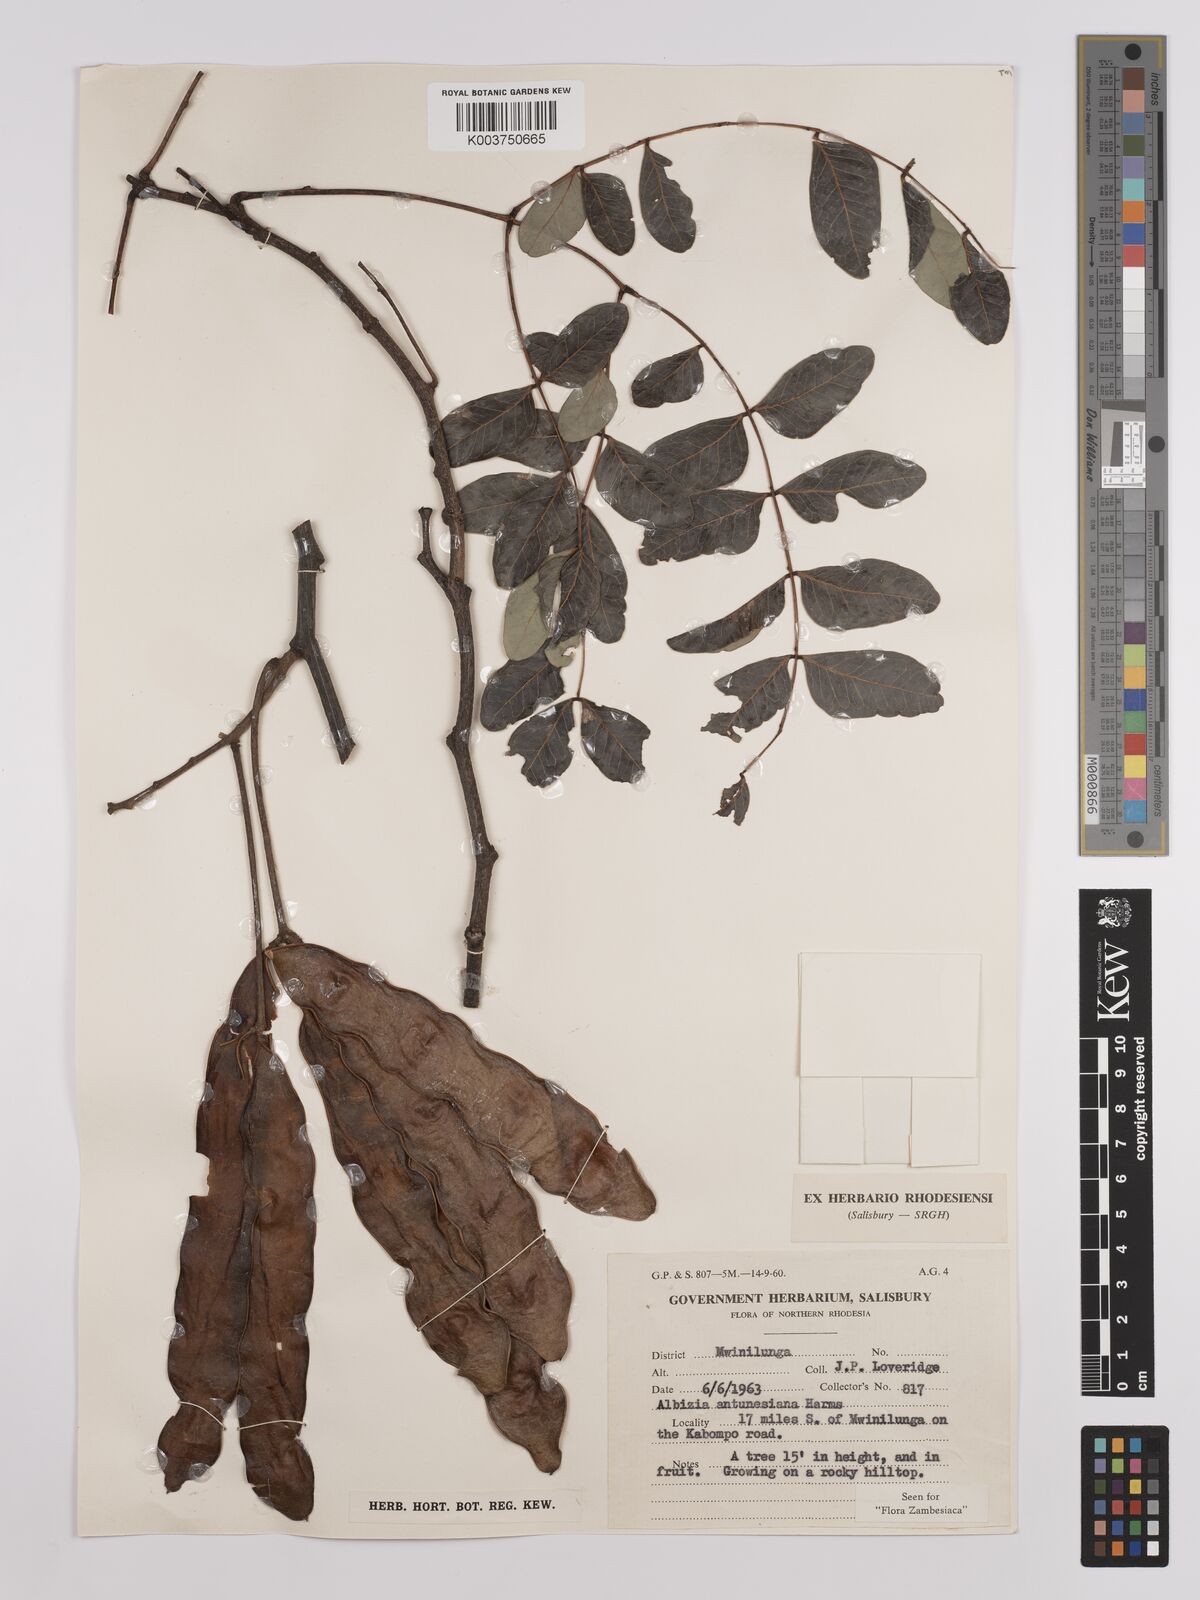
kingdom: Plantae
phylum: Tracheophyta
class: Magnoliopsida
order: Fabales
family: Fabaceae
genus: Albizia
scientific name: Albizia antunesiana
